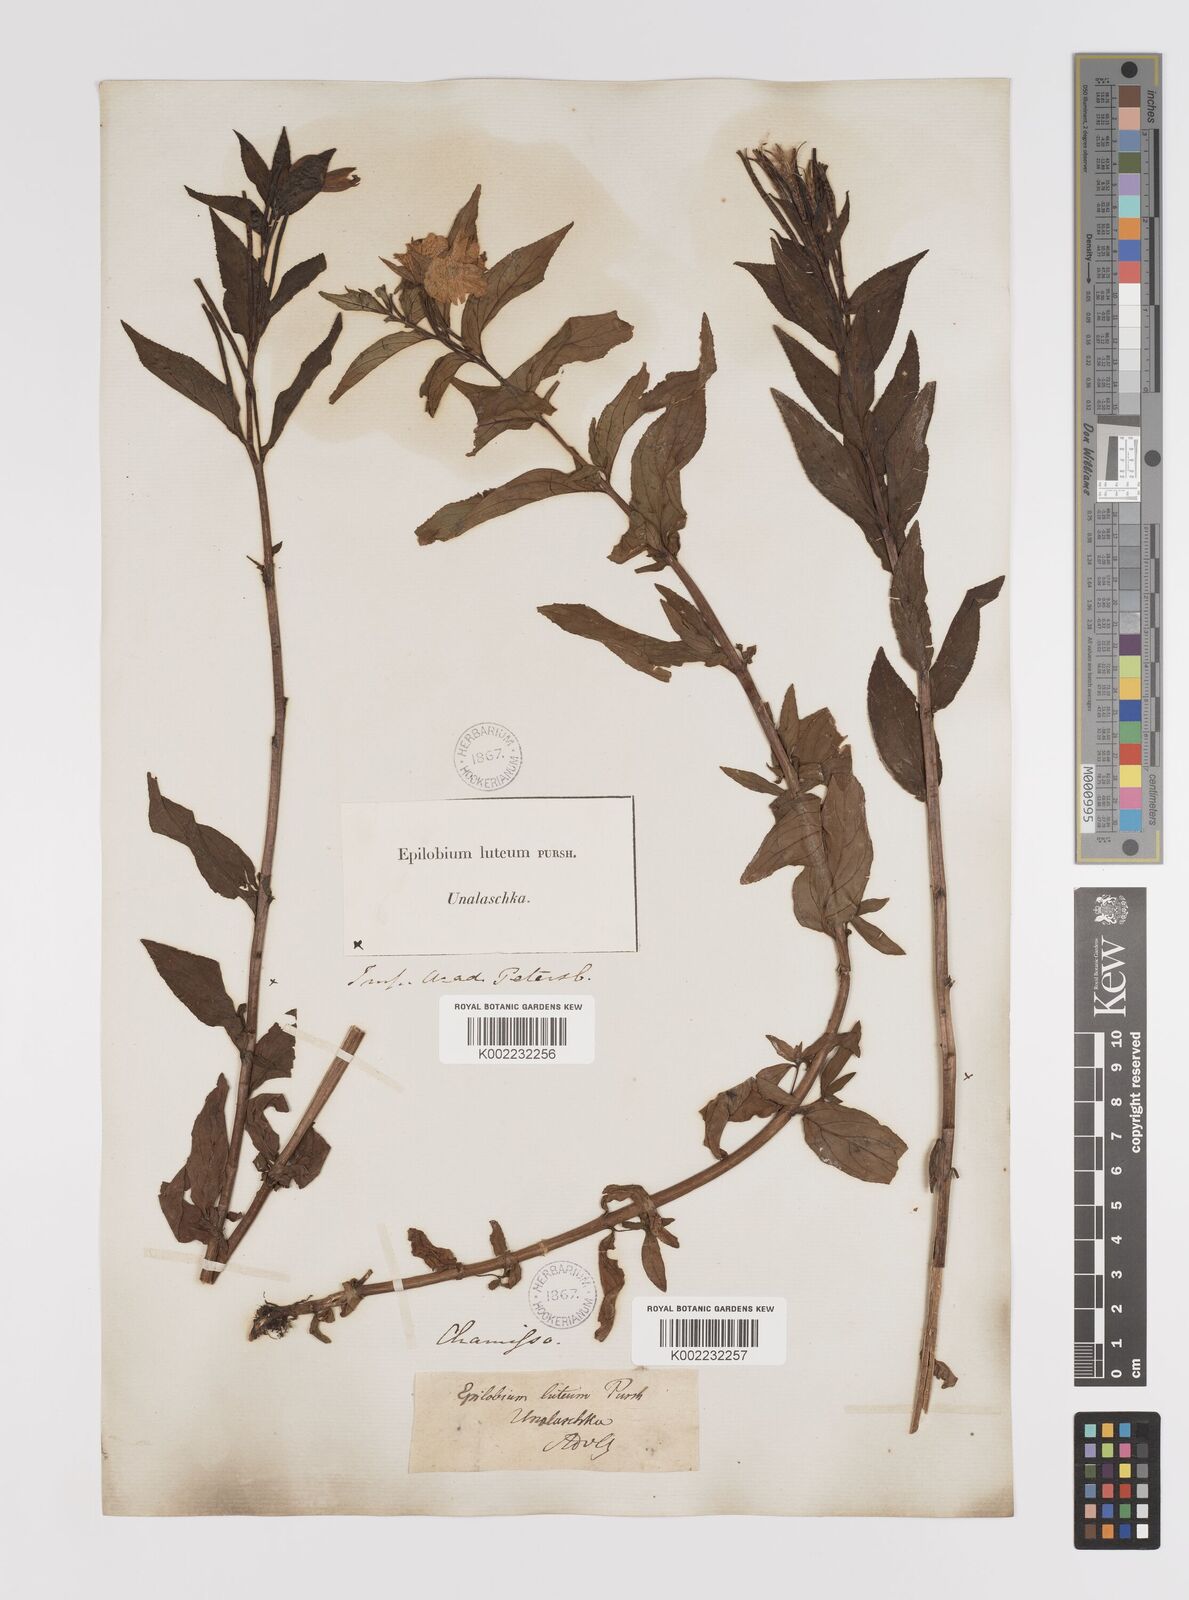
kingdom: Plantae
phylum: Tracheophyta
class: Magnoliopsida
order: Myrtales
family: Onagraceae
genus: Epilobium
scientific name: Epilobium luteum
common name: Yellow willowherb
